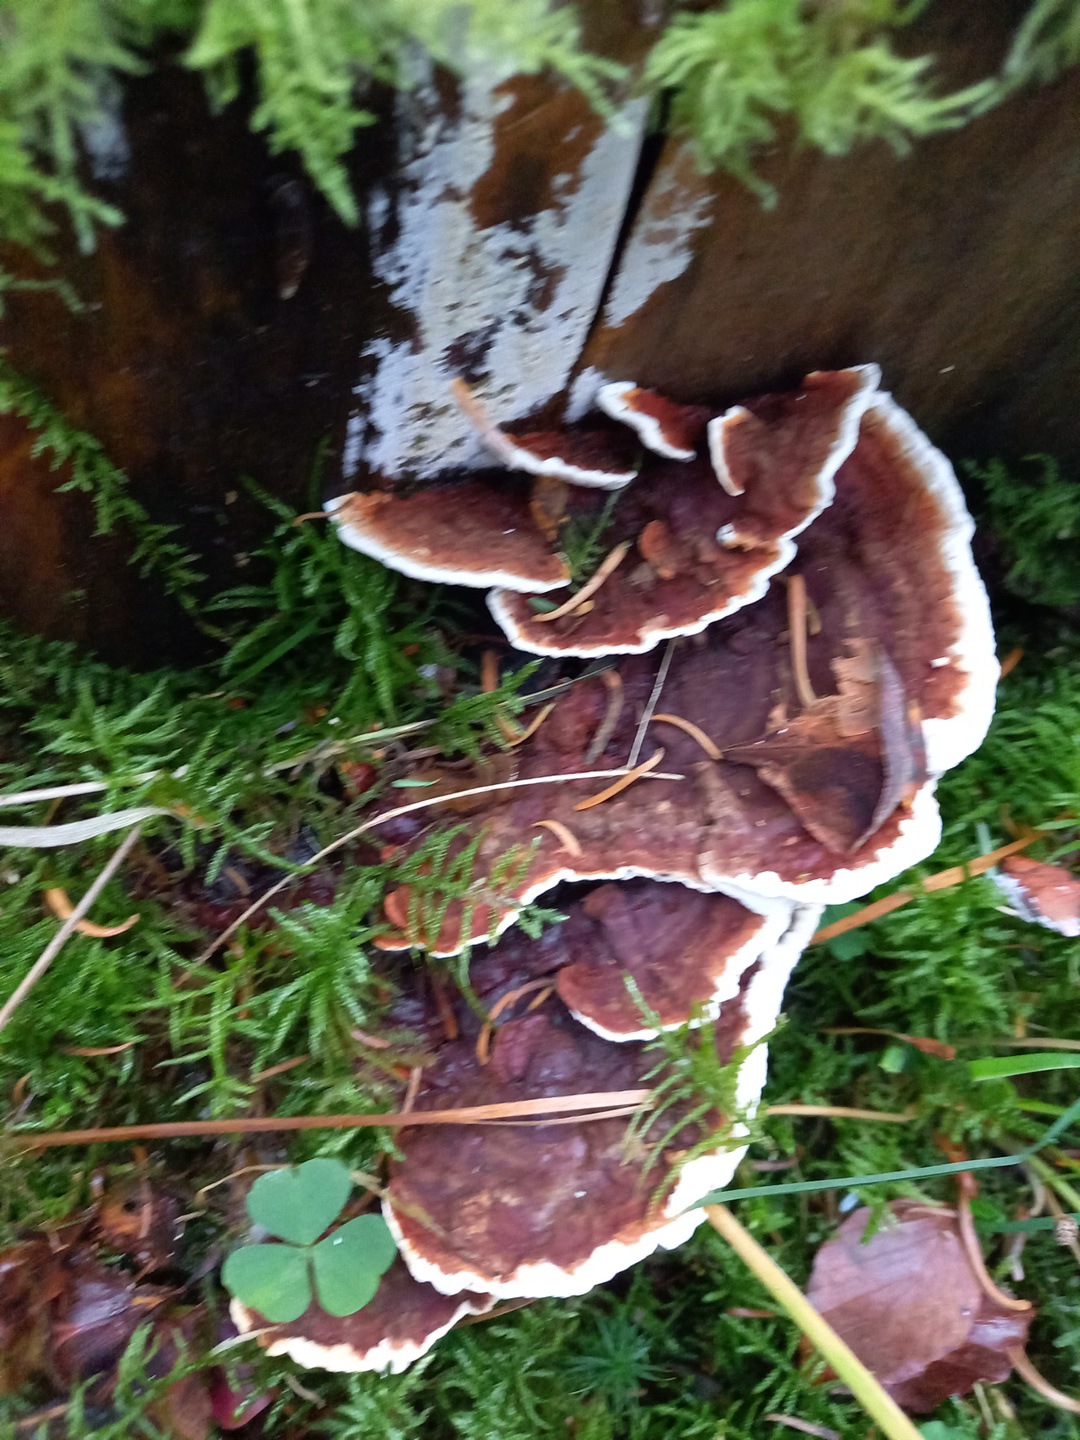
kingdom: Fungi
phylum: Basidiomycota
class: Agaricomycetes
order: Russulales
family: Bondarzewiaceae
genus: Heterobasidion
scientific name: Heterobasidion
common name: rodfordærver
